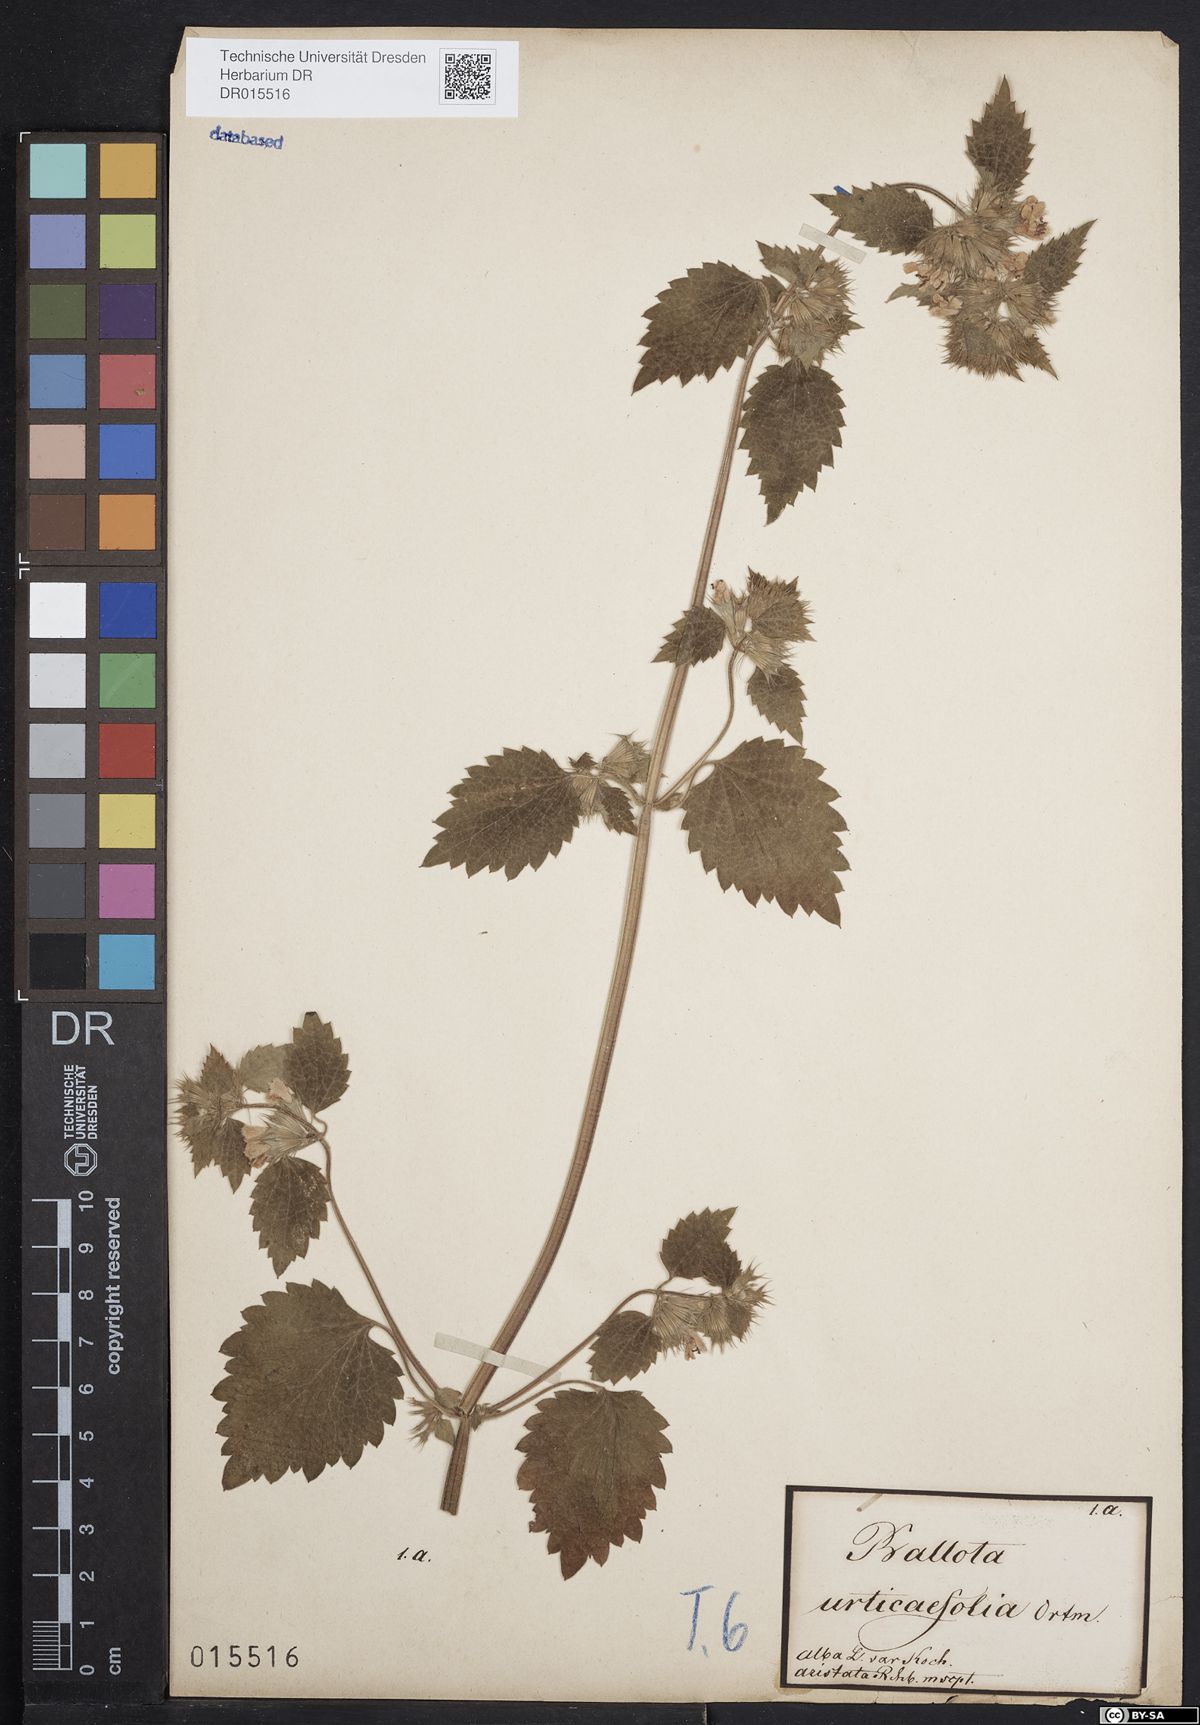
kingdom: Plantae
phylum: Tracheophyta
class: Magnoliopsida
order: Lamiales
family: Lamiaceae
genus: Ballota
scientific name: Ballota nigra
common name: Black horehound
